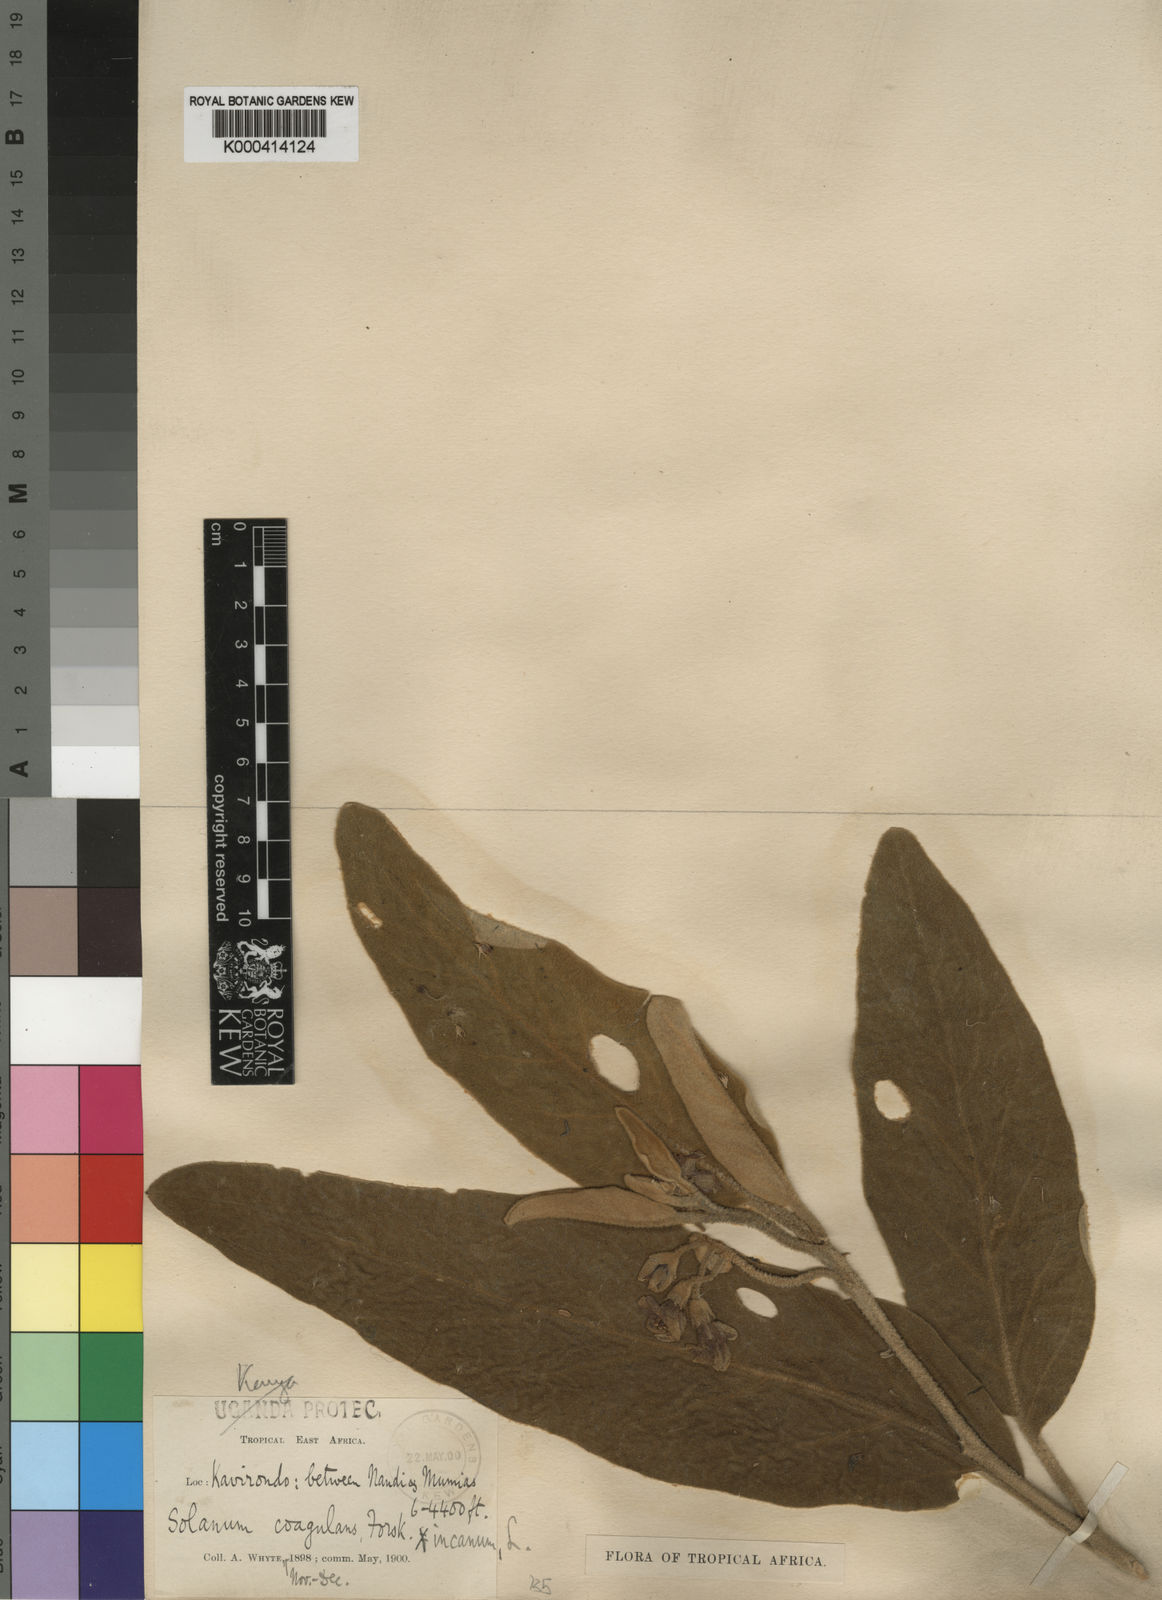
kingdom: Plantae
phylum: Tracheophyta
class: Magnoliopsida
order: Solanales
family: Solanaceae
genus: Solanum
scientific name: Solanum incanum
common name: Bitter apple
